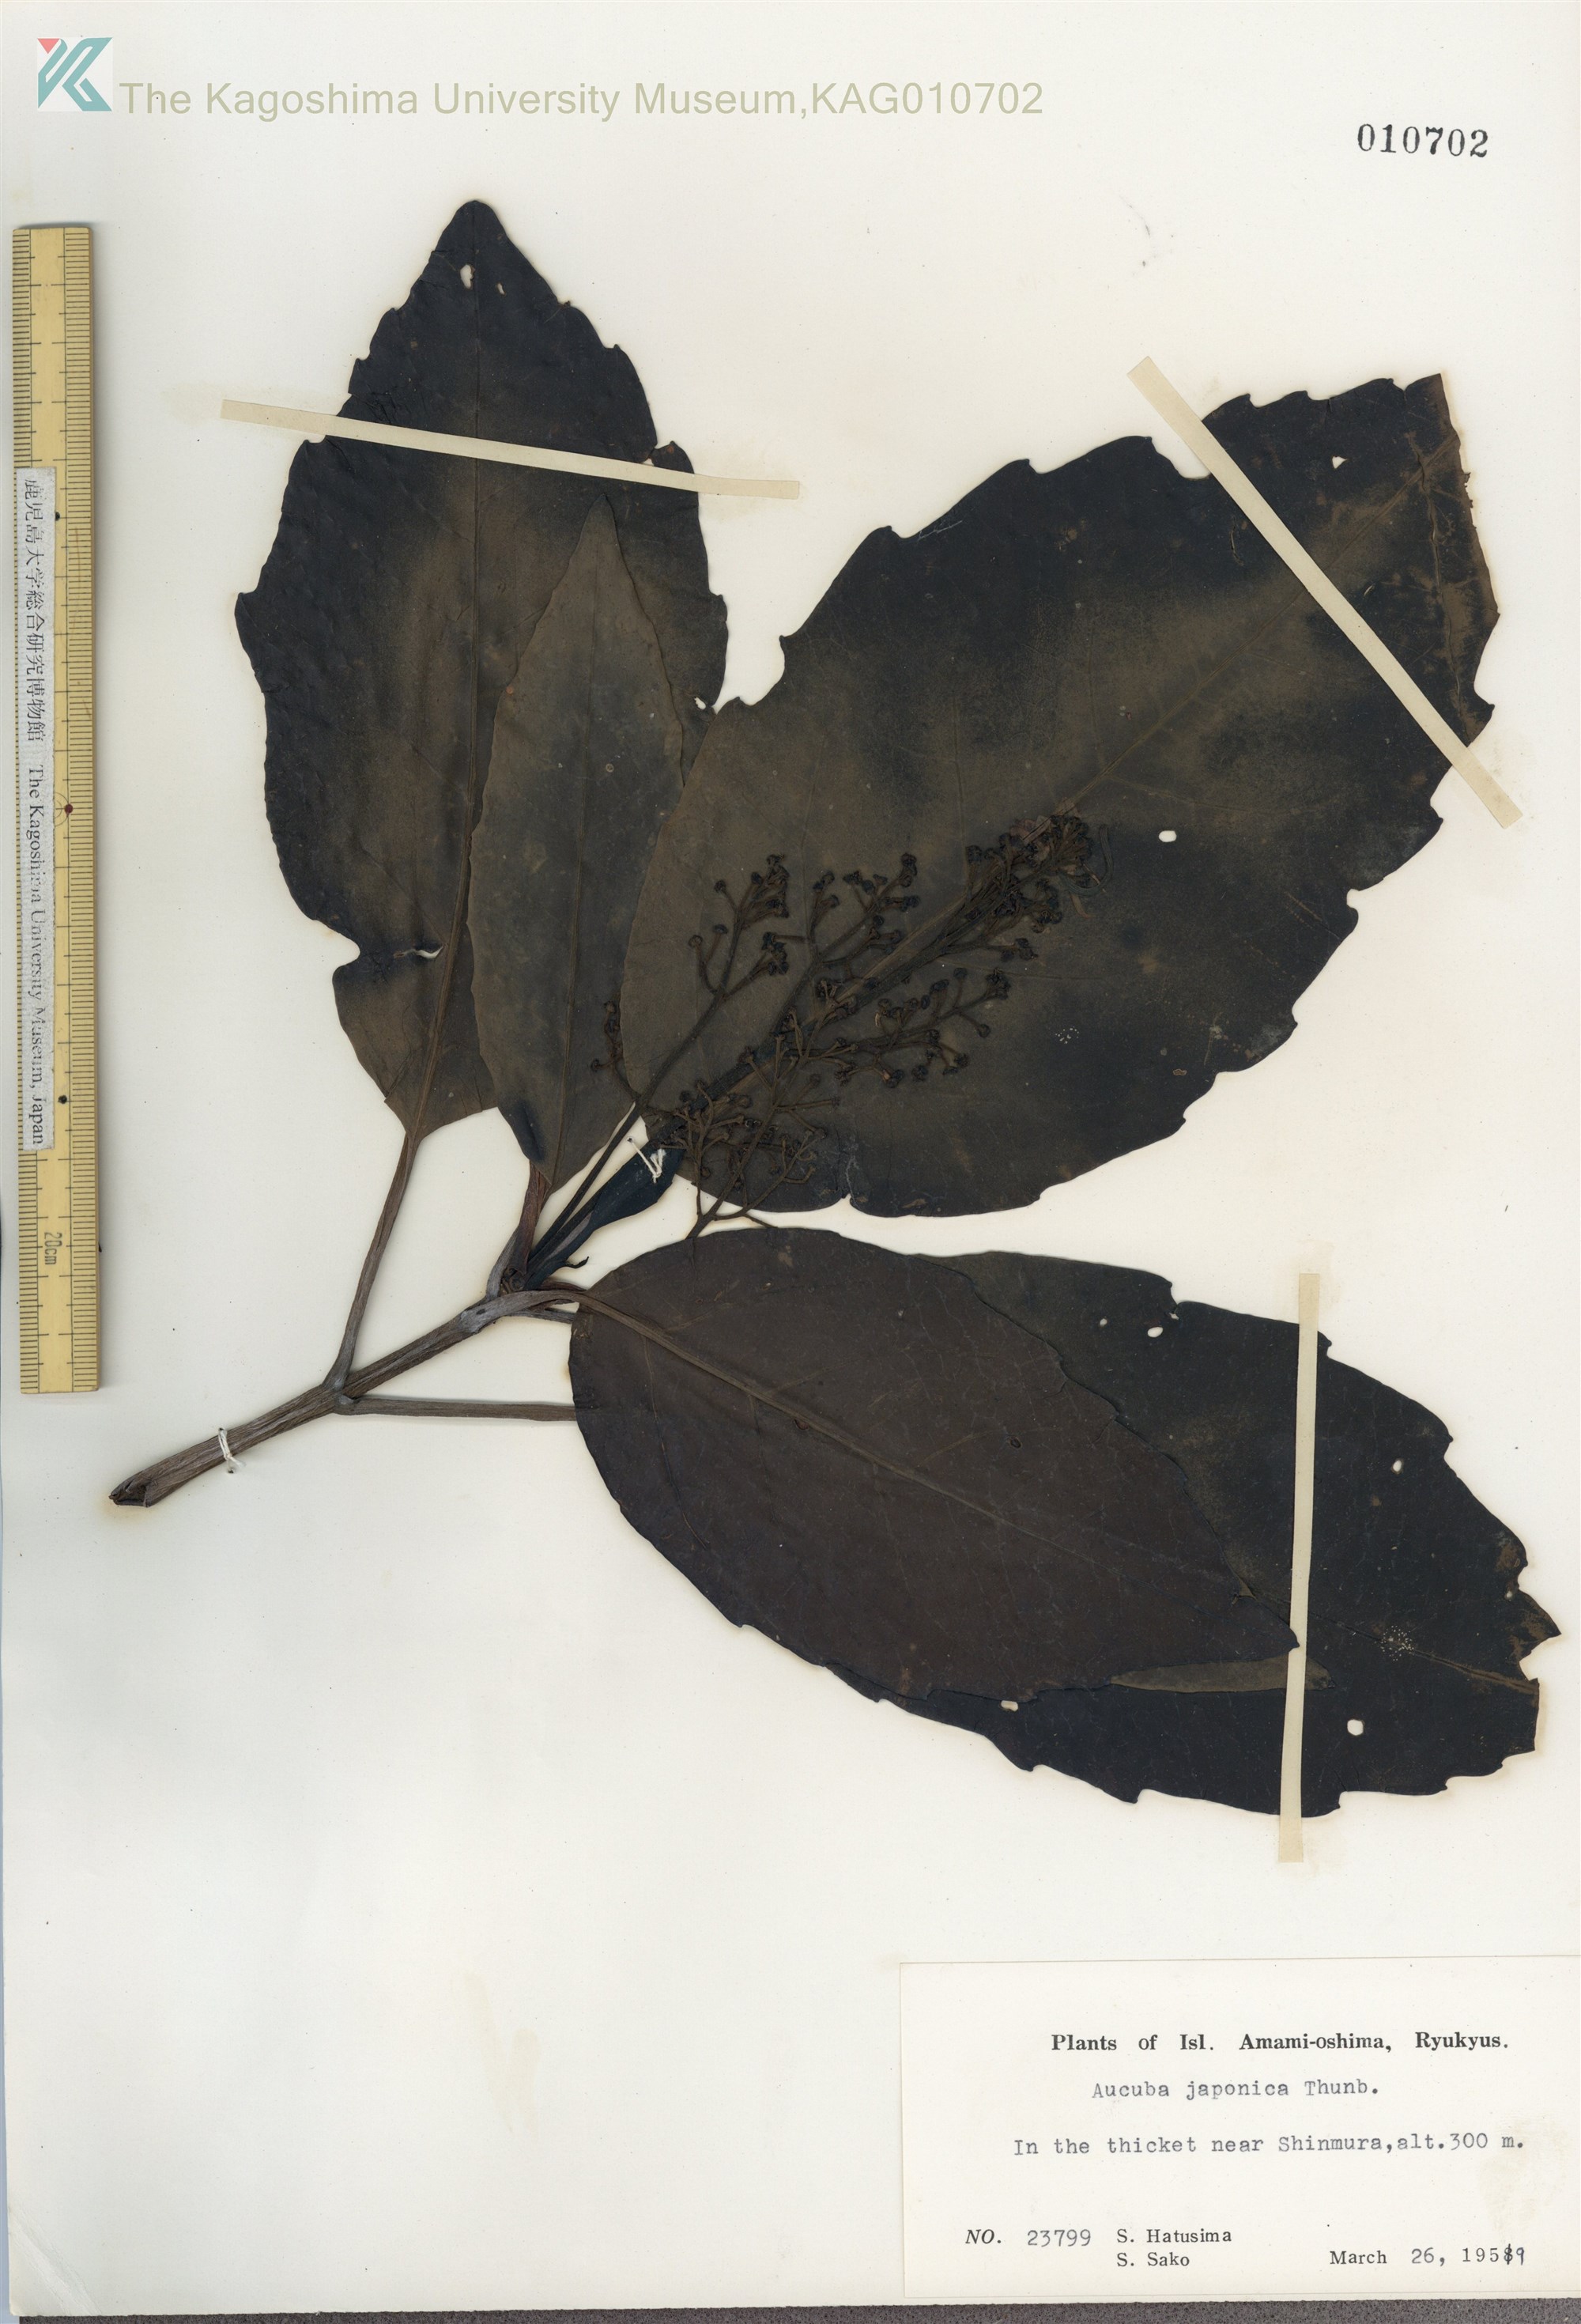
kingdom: Plantae
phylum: Tracheophyta
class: Magnoliopsida
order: Garryales
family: Garryaceae
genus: Aucuba
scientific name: Aucuba japonica
